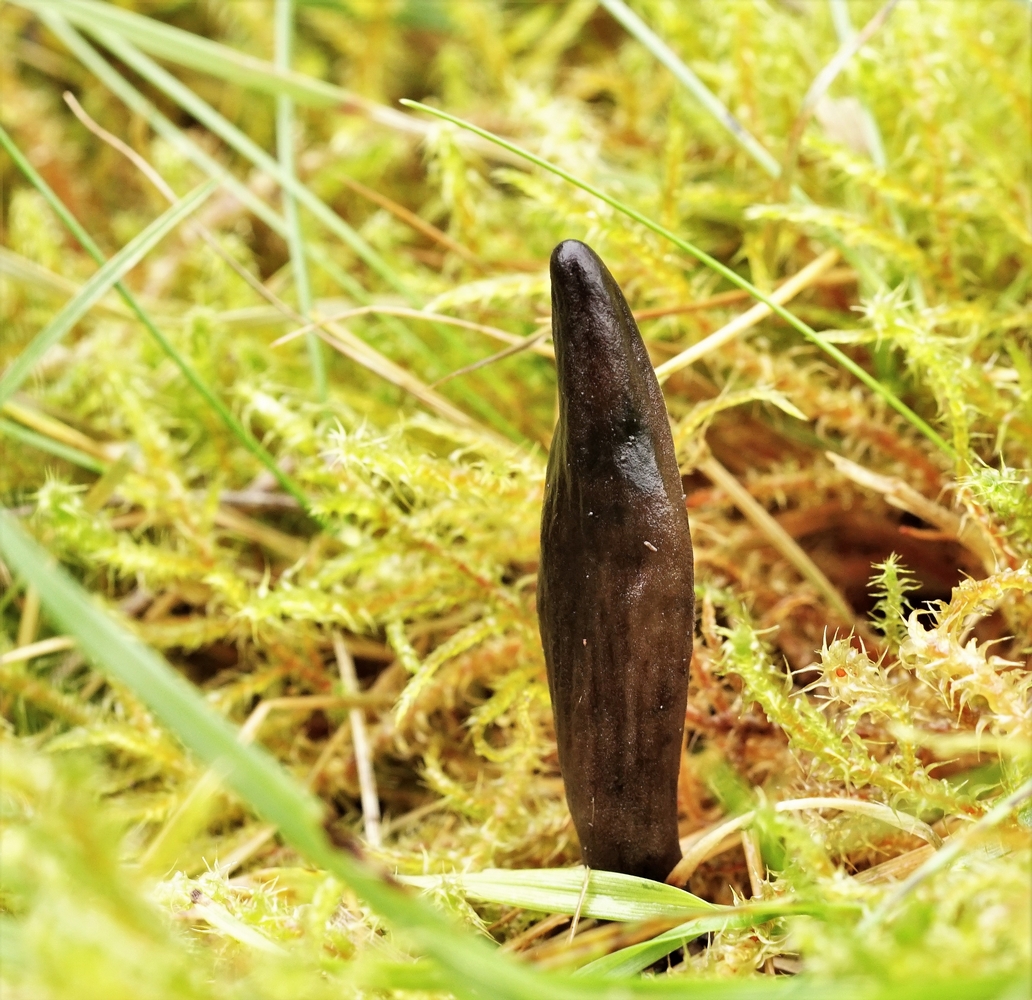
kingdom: Fungi
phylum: Ascomycota
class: Geoglossomycetes
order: Geoglossales
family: Geoglossaceae
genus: Geoglossum
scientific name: Geoglossum fallax
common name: småskællet jordtunge
